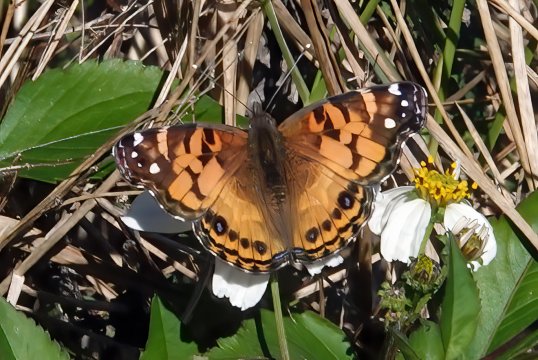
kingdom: Animalia
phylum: Arthropoda
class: Insecta
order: Lepidoptera
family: Nymphalidae
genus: Vanessa
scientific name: Vanessa virginiensis
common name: American Lady
